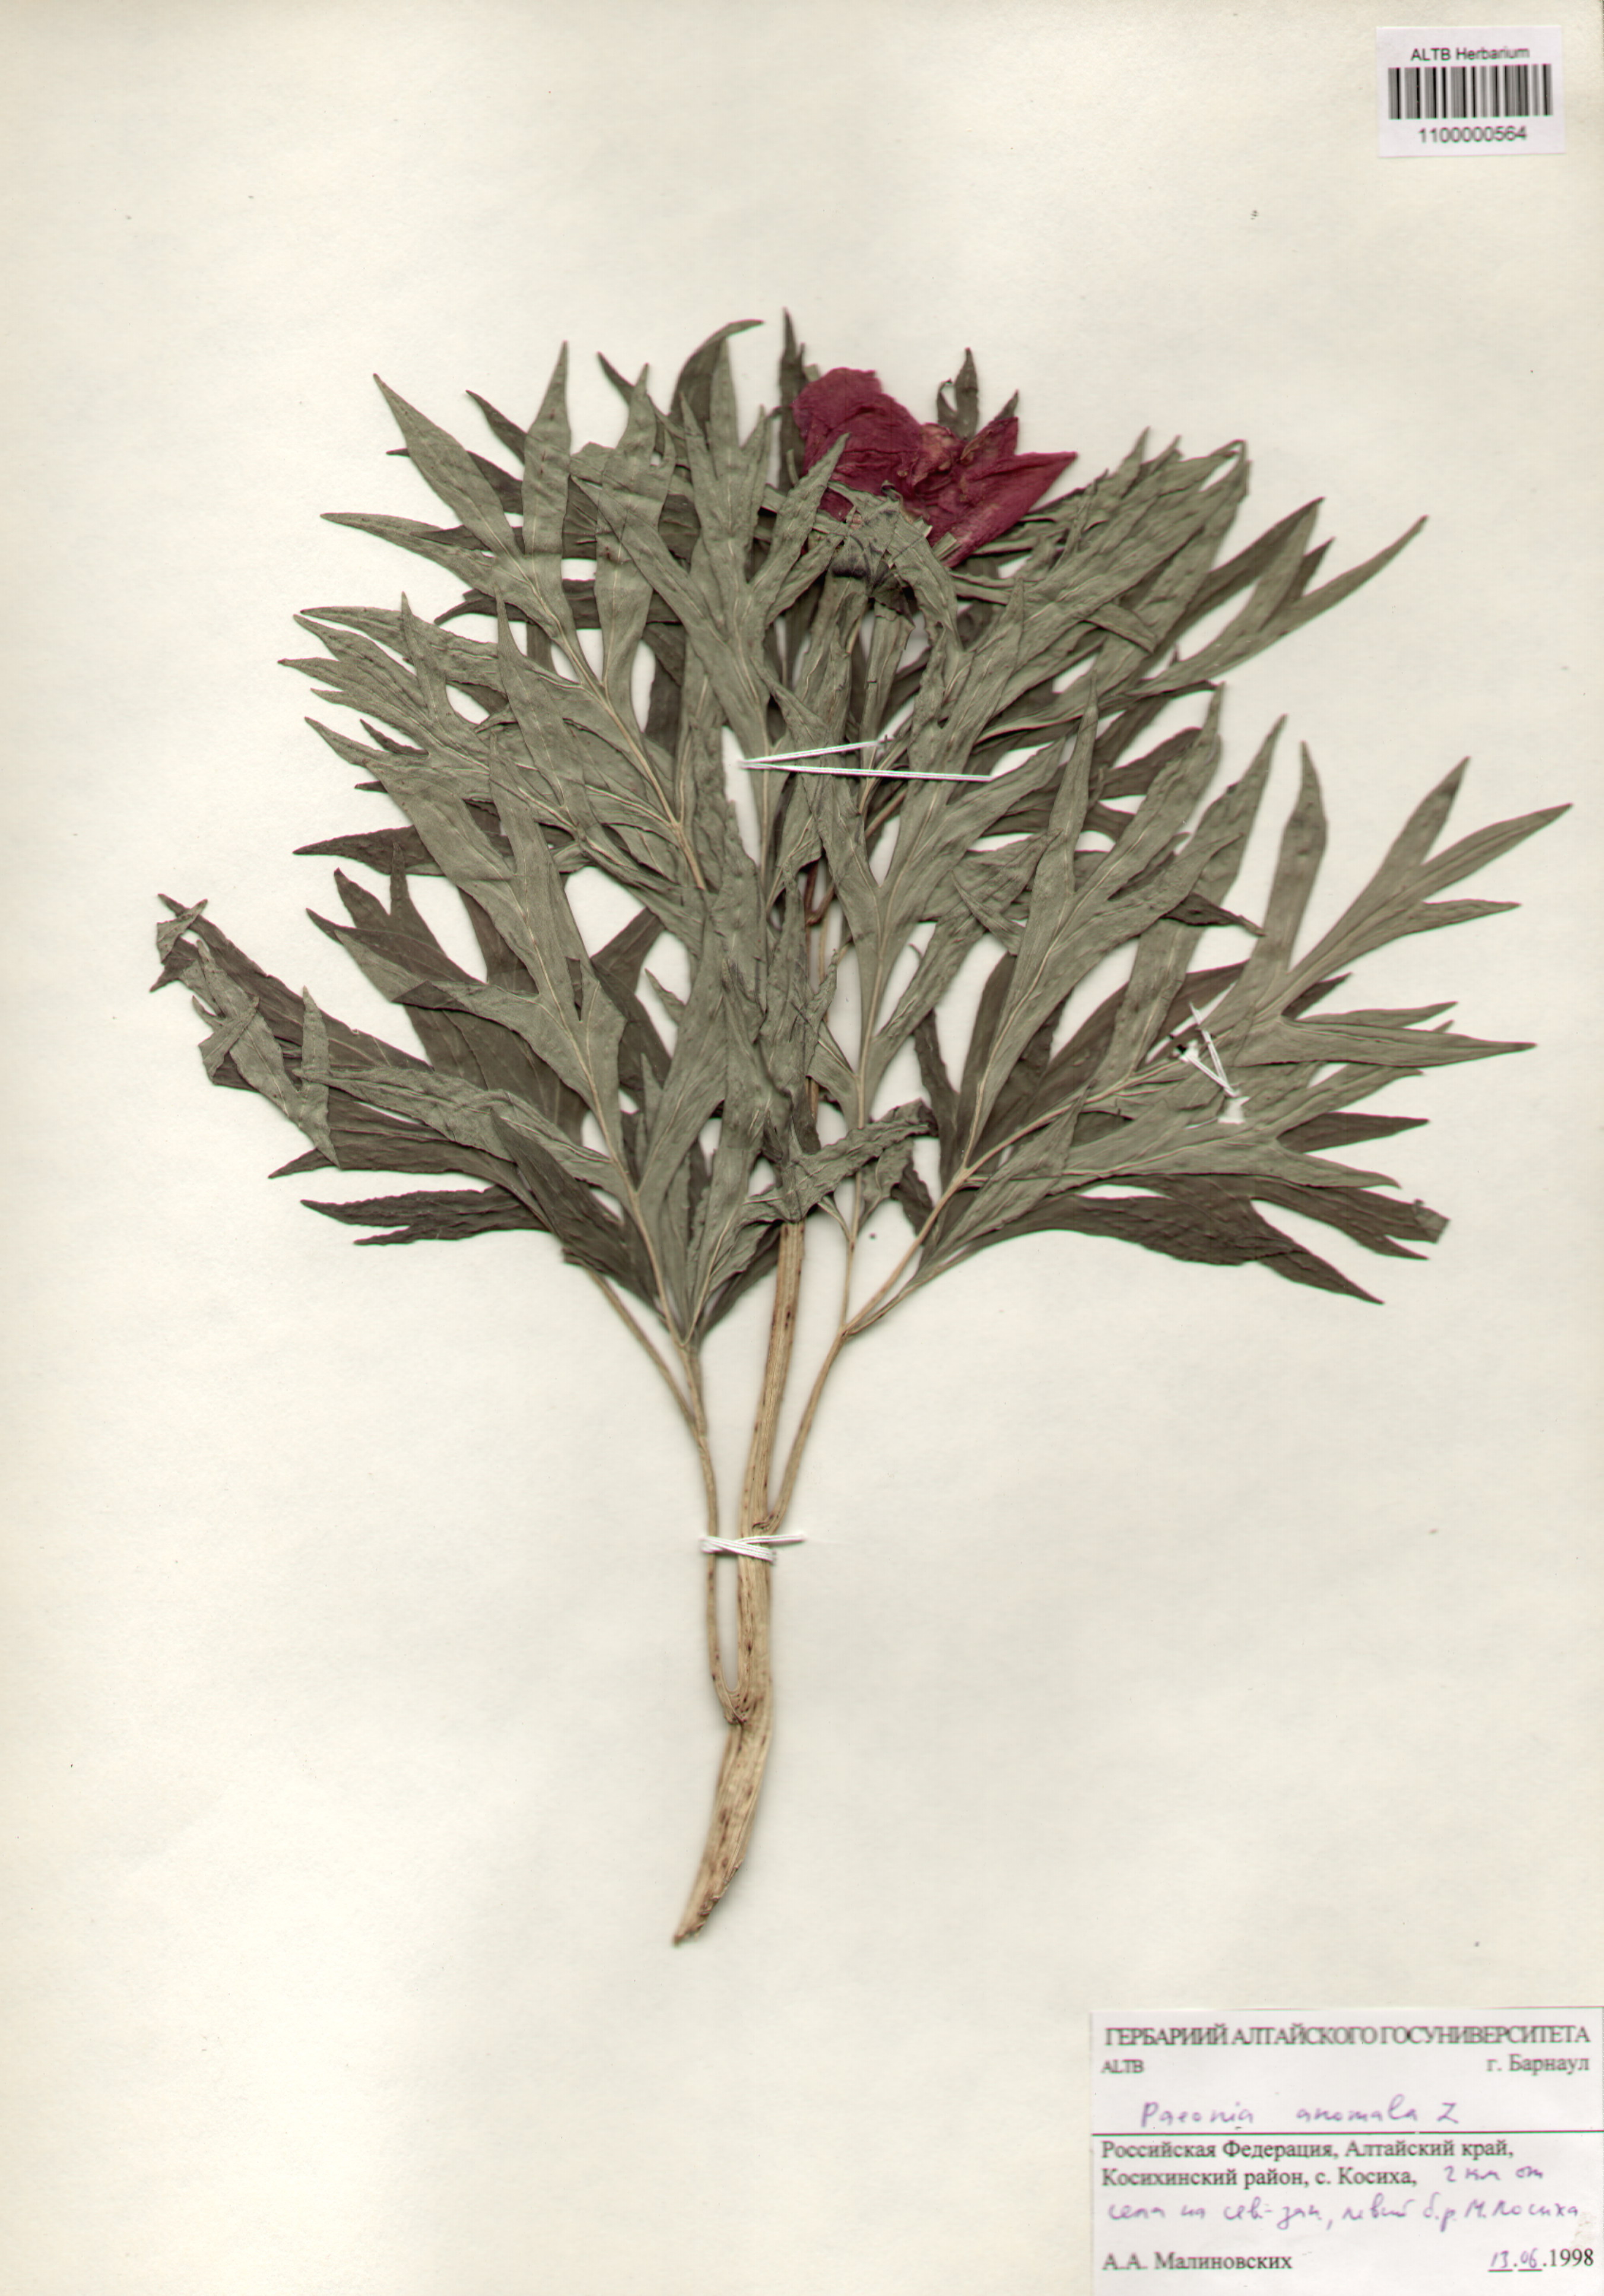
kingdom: Plantae
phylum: Tracheophyta
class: Magnoliopsida
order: Saxifragales
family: Paeoniaceae
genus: Paeonia
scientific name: Paeonia anomala
